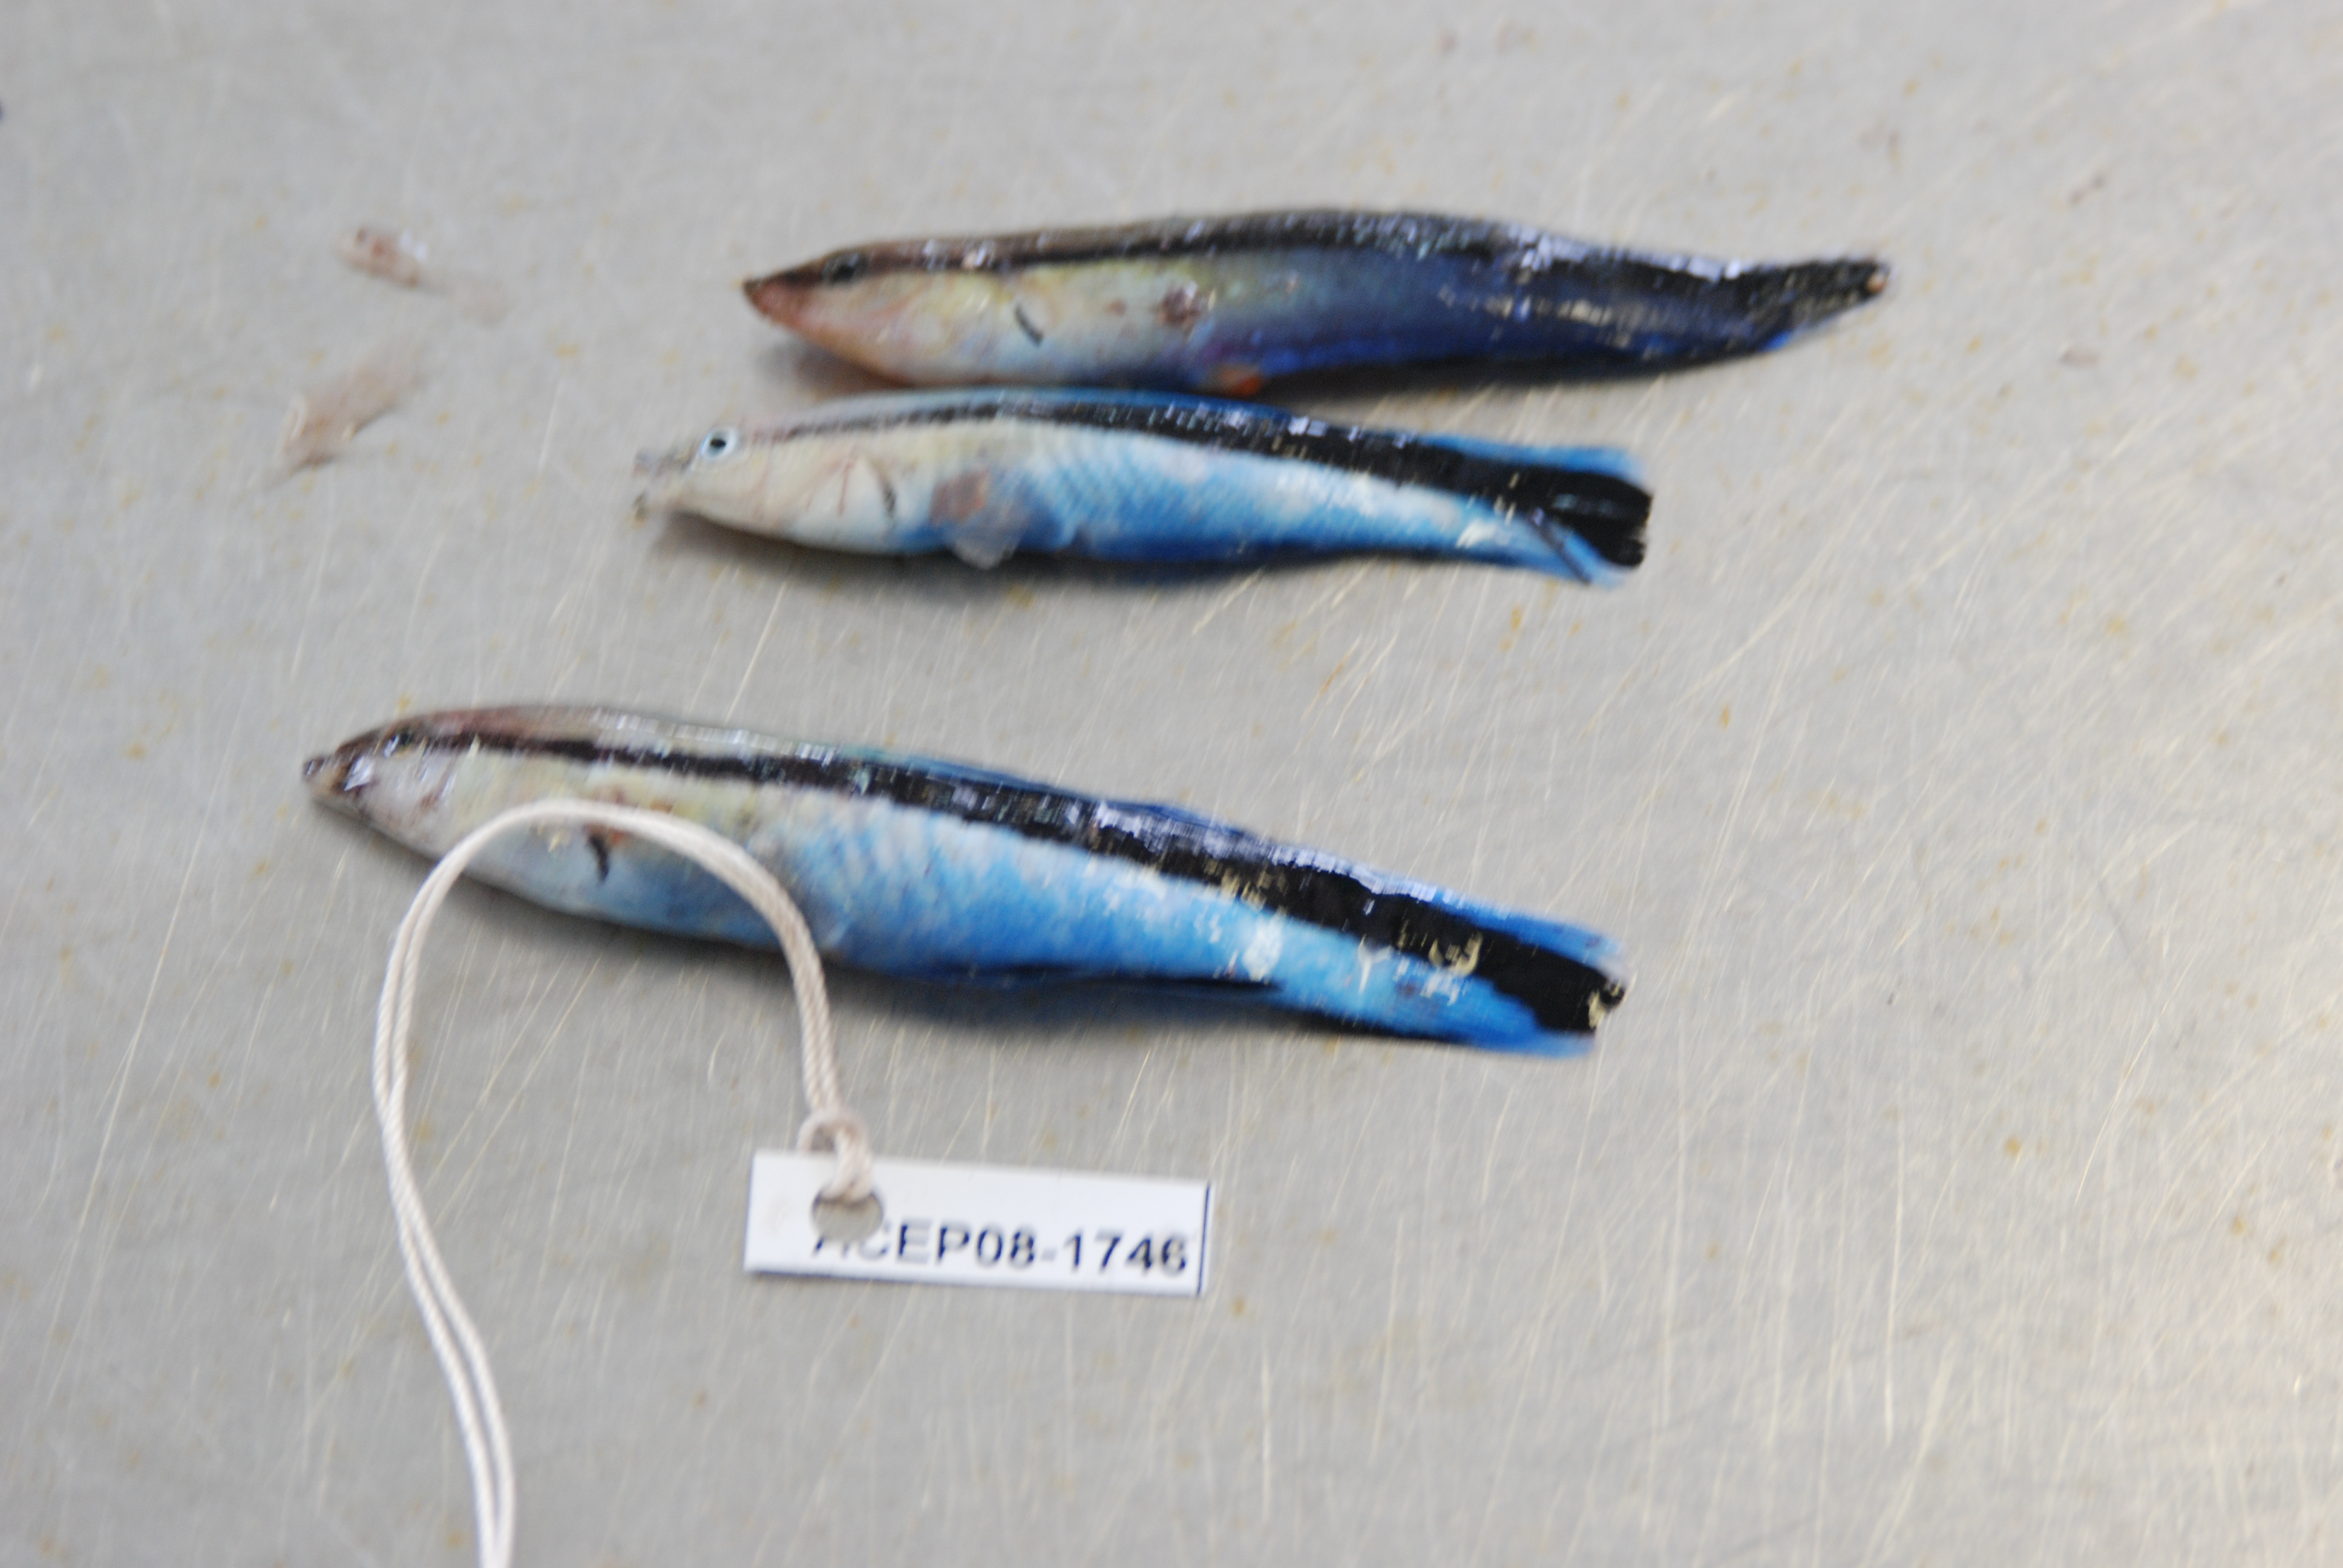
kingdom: Animalia
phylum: Chordata
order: Perciformes
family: Labridae
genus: Labroides
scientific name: Labroides dimidiatus
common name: Blue diesel wrasse
